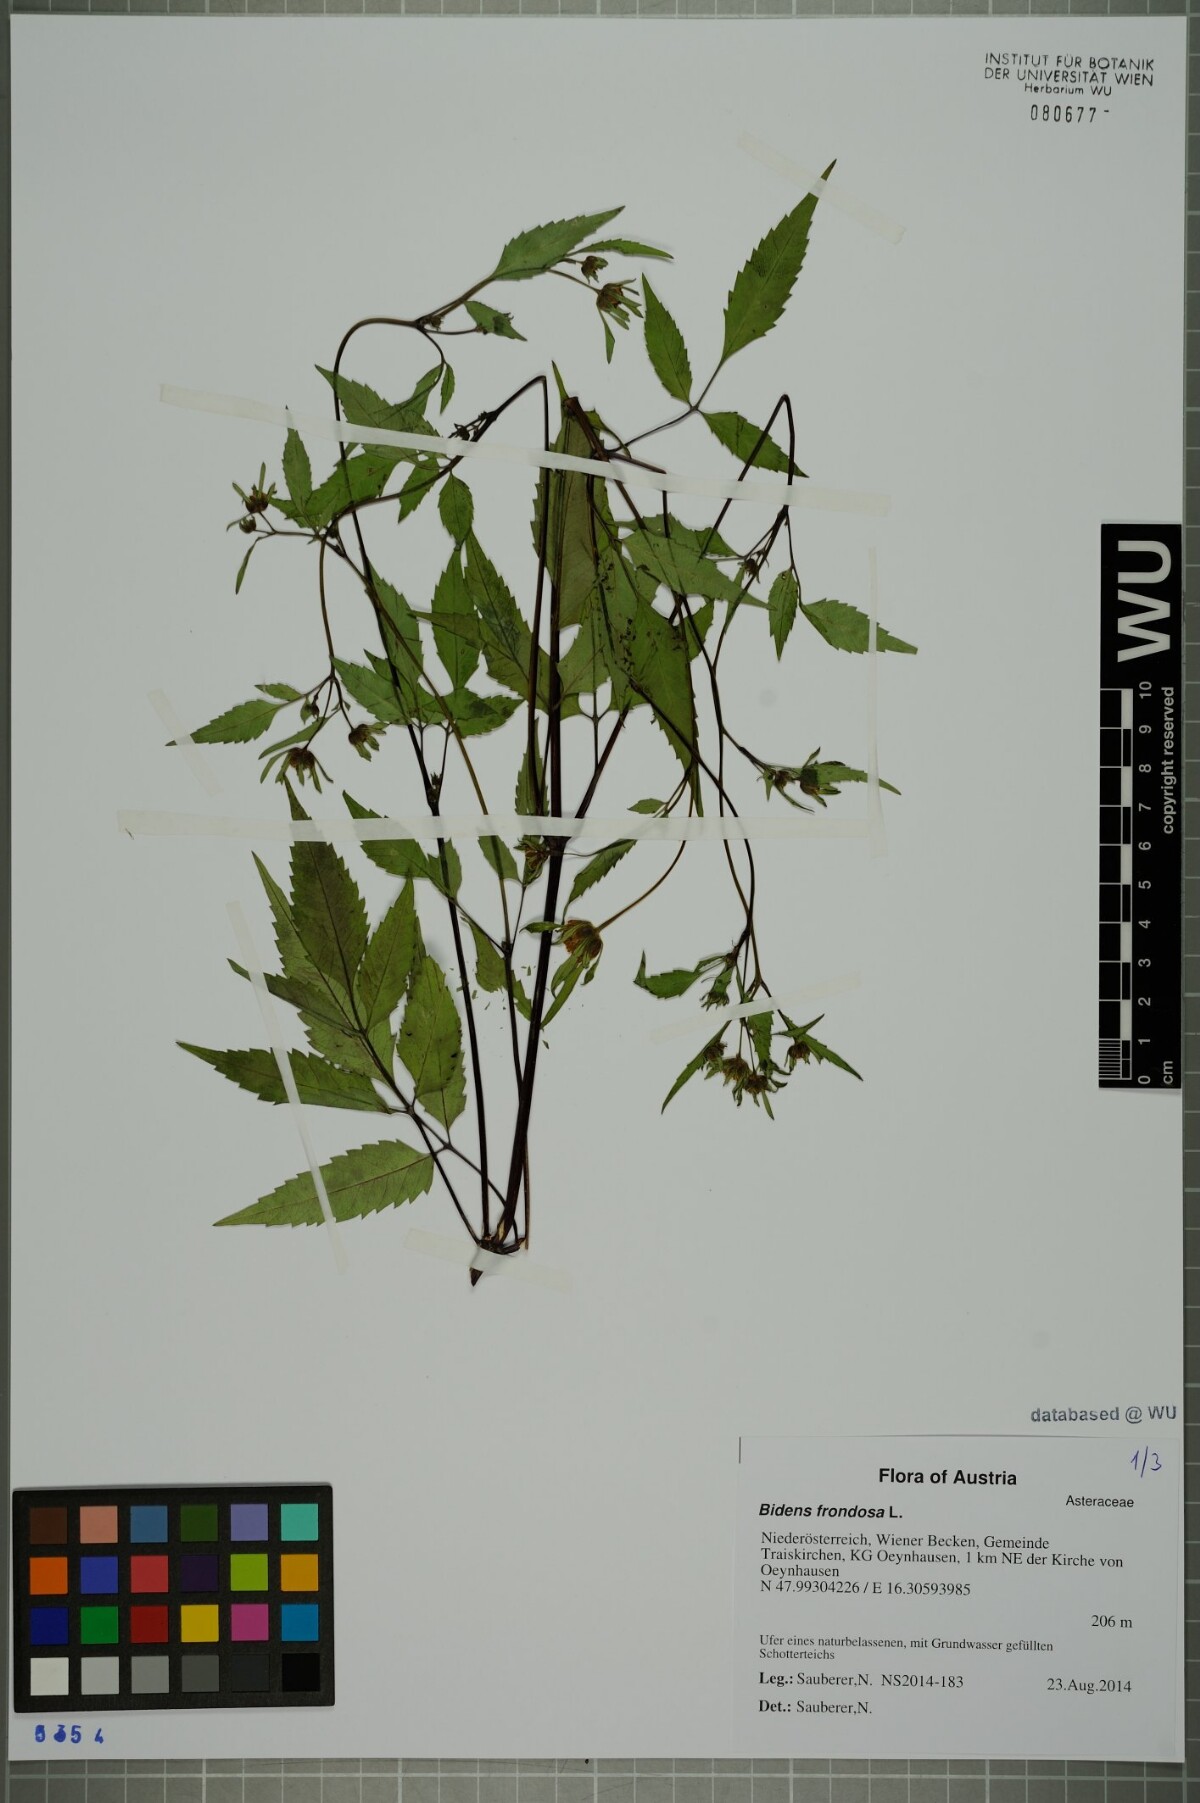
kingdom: Plantae
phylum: Tracheophyta
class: Magnoliopsida
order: Asterales
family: Asteraceae
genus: Bidens
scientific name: Bidens frondosa
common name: Beggarticks
